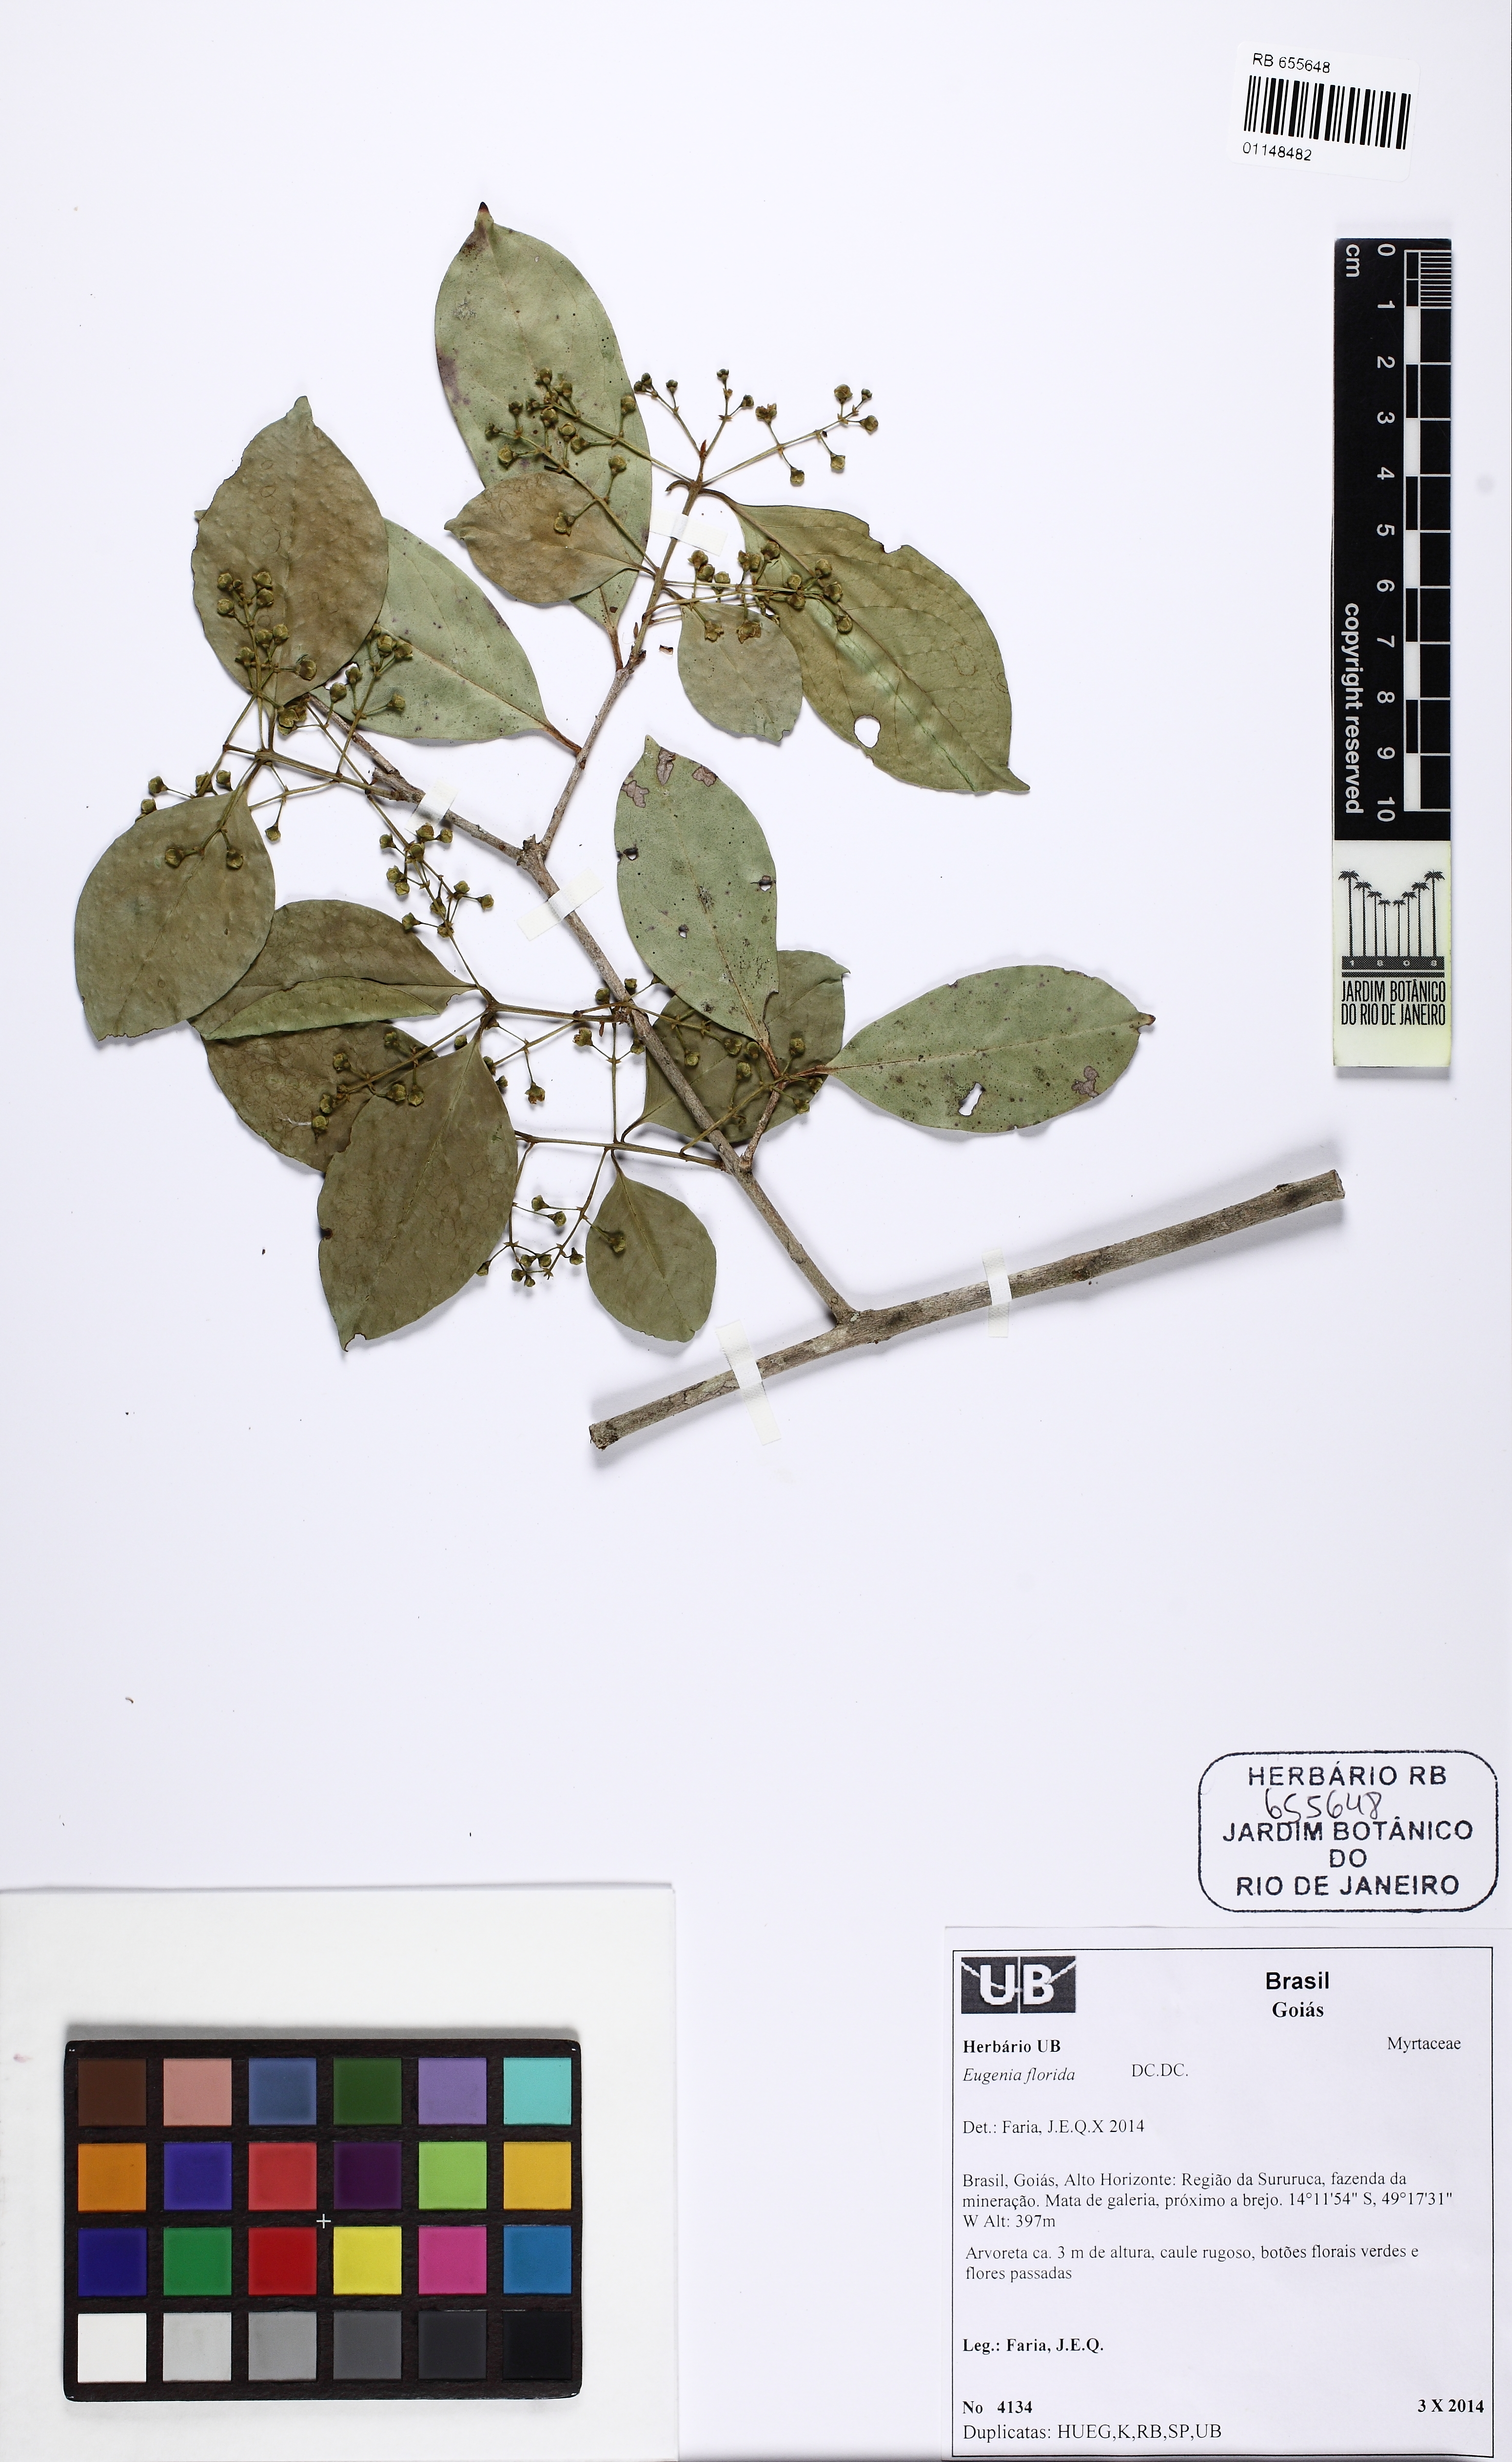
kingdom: Plantae
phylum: Tracheophyta
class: Magnoliopsida
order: Myrtales
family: Myrtaceae
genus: Eugenia
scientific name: Eugenia florida
